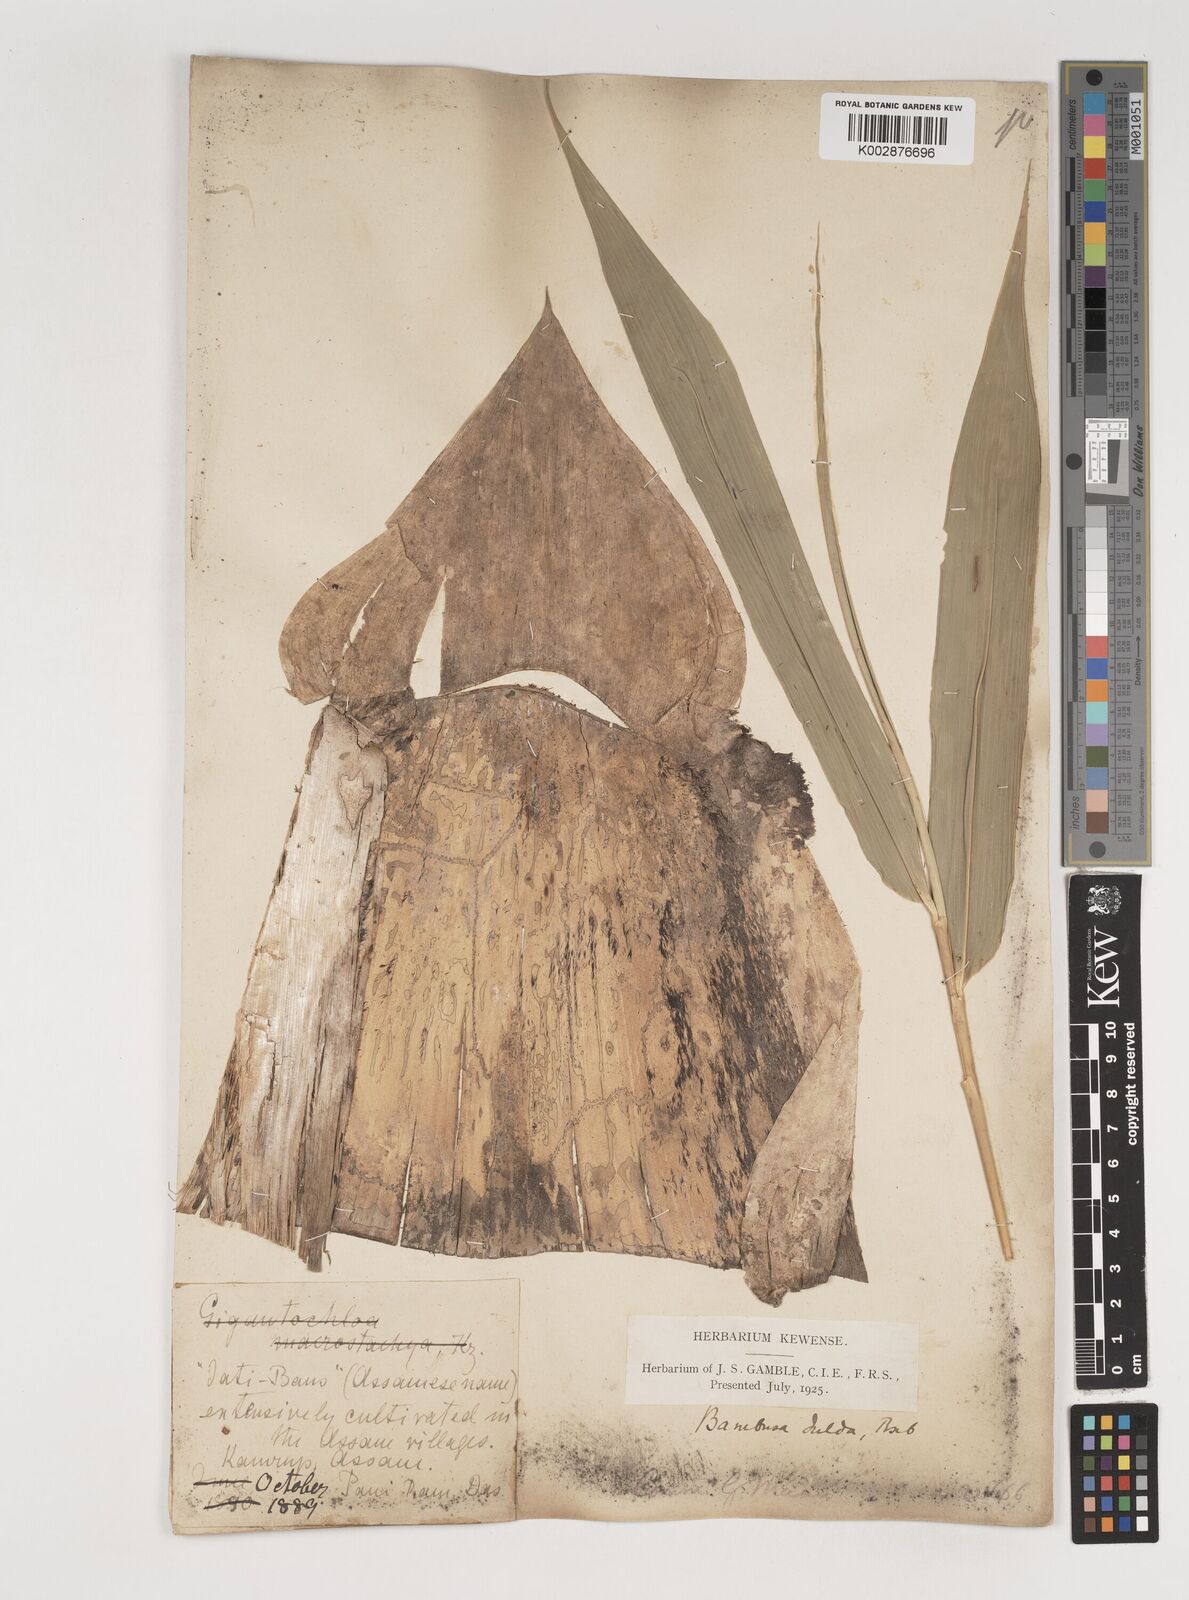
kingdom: Plantae
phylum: Tracheophyta
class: Liliopsida
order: Poales
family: Poaceae
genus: Bambusa
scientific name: Bambusa teres
